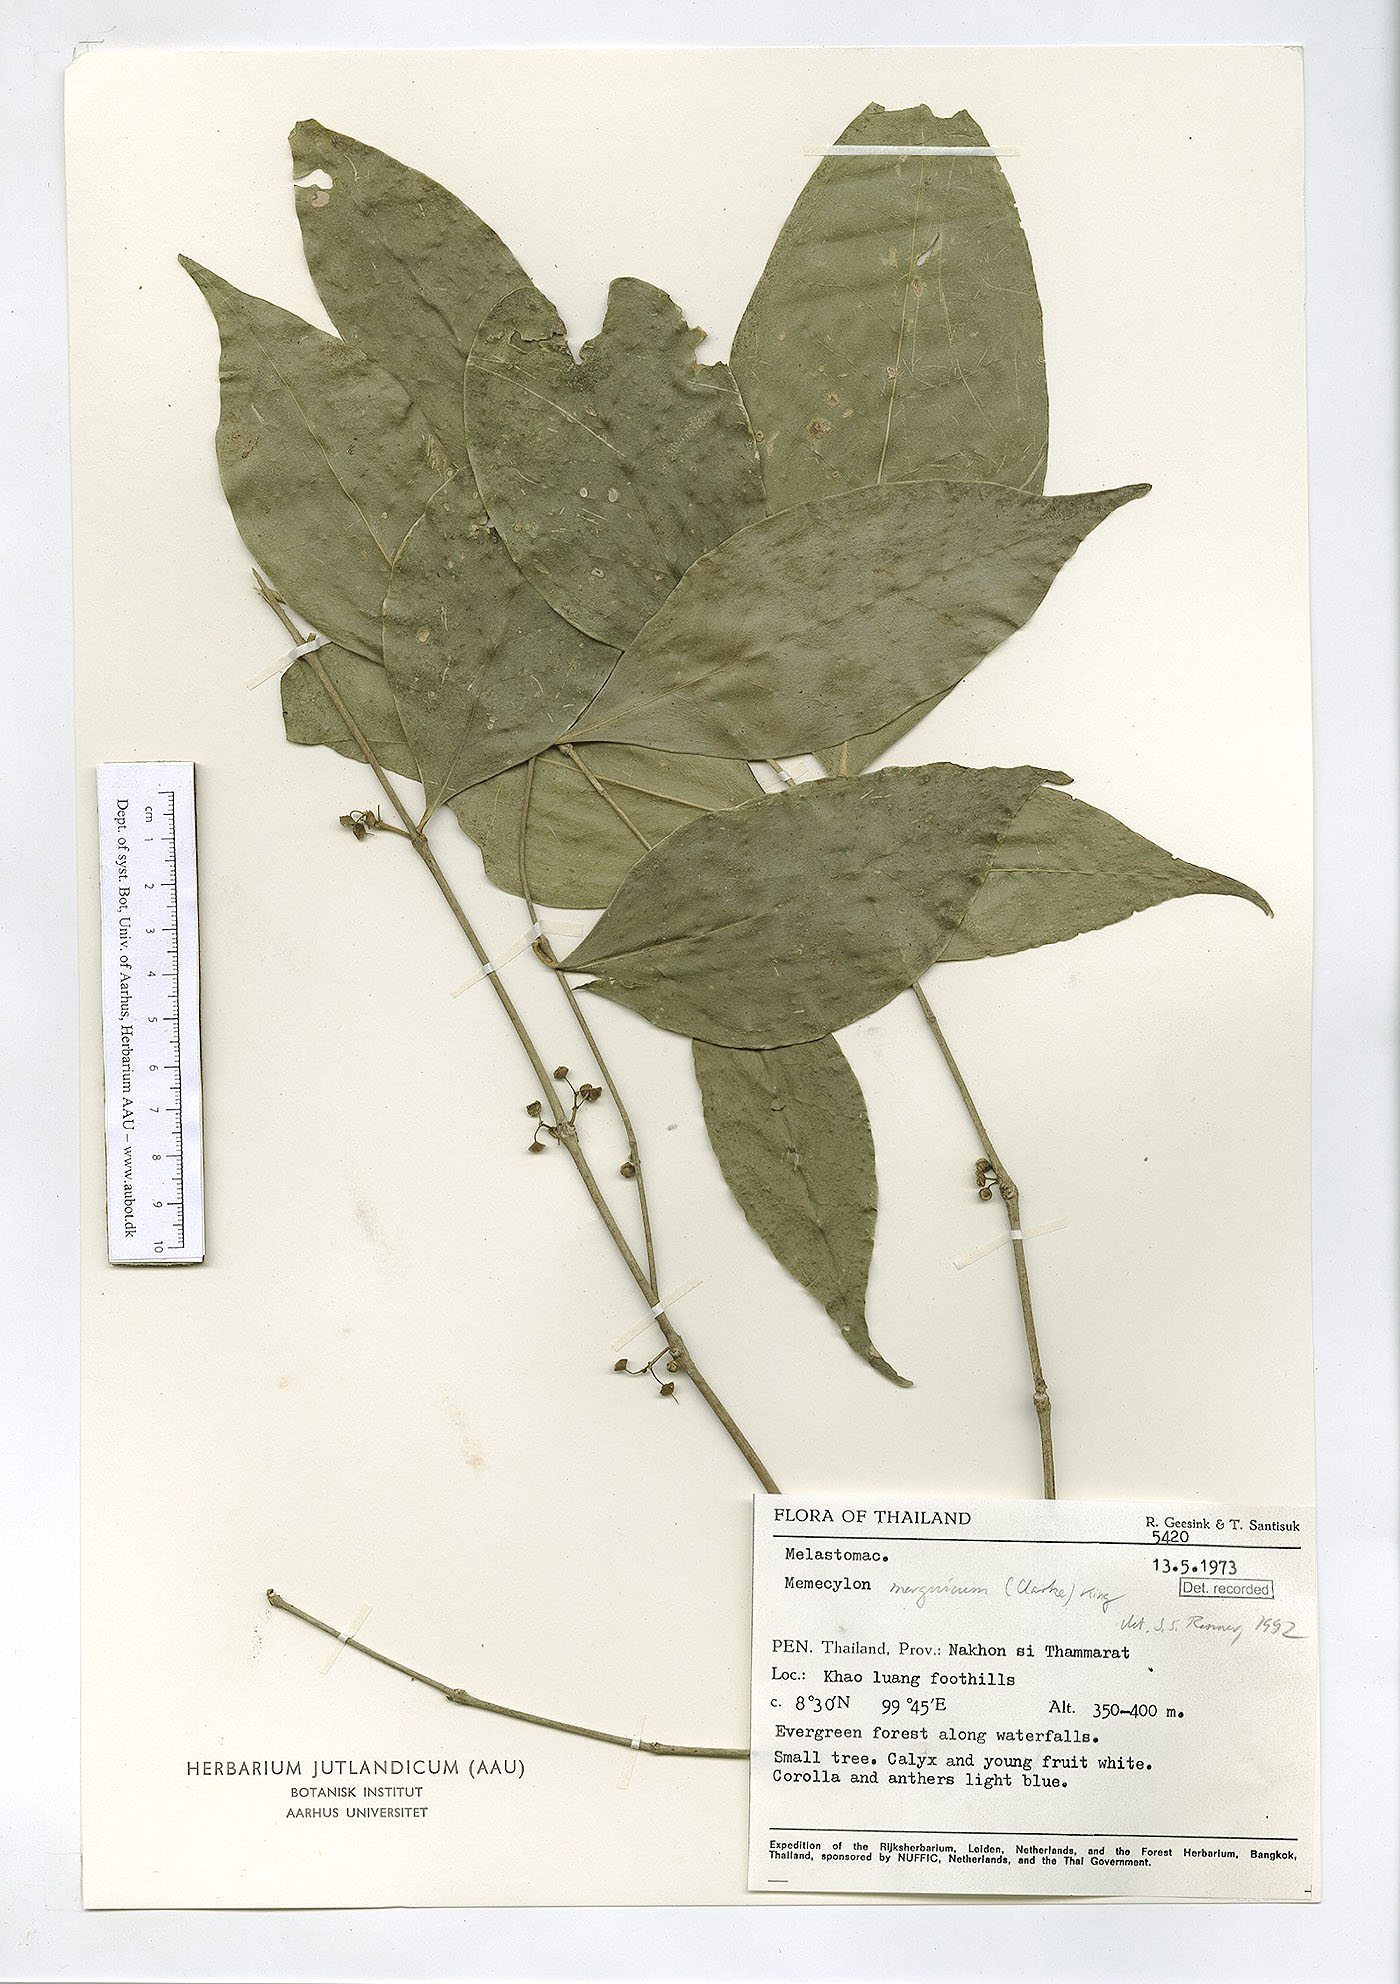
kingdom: Plantae
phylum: Tracheophyta
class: Magnoliopsida
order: Myrtales
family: Melastomataceae
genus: Memecylon
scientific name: Memecylon cantleyi
